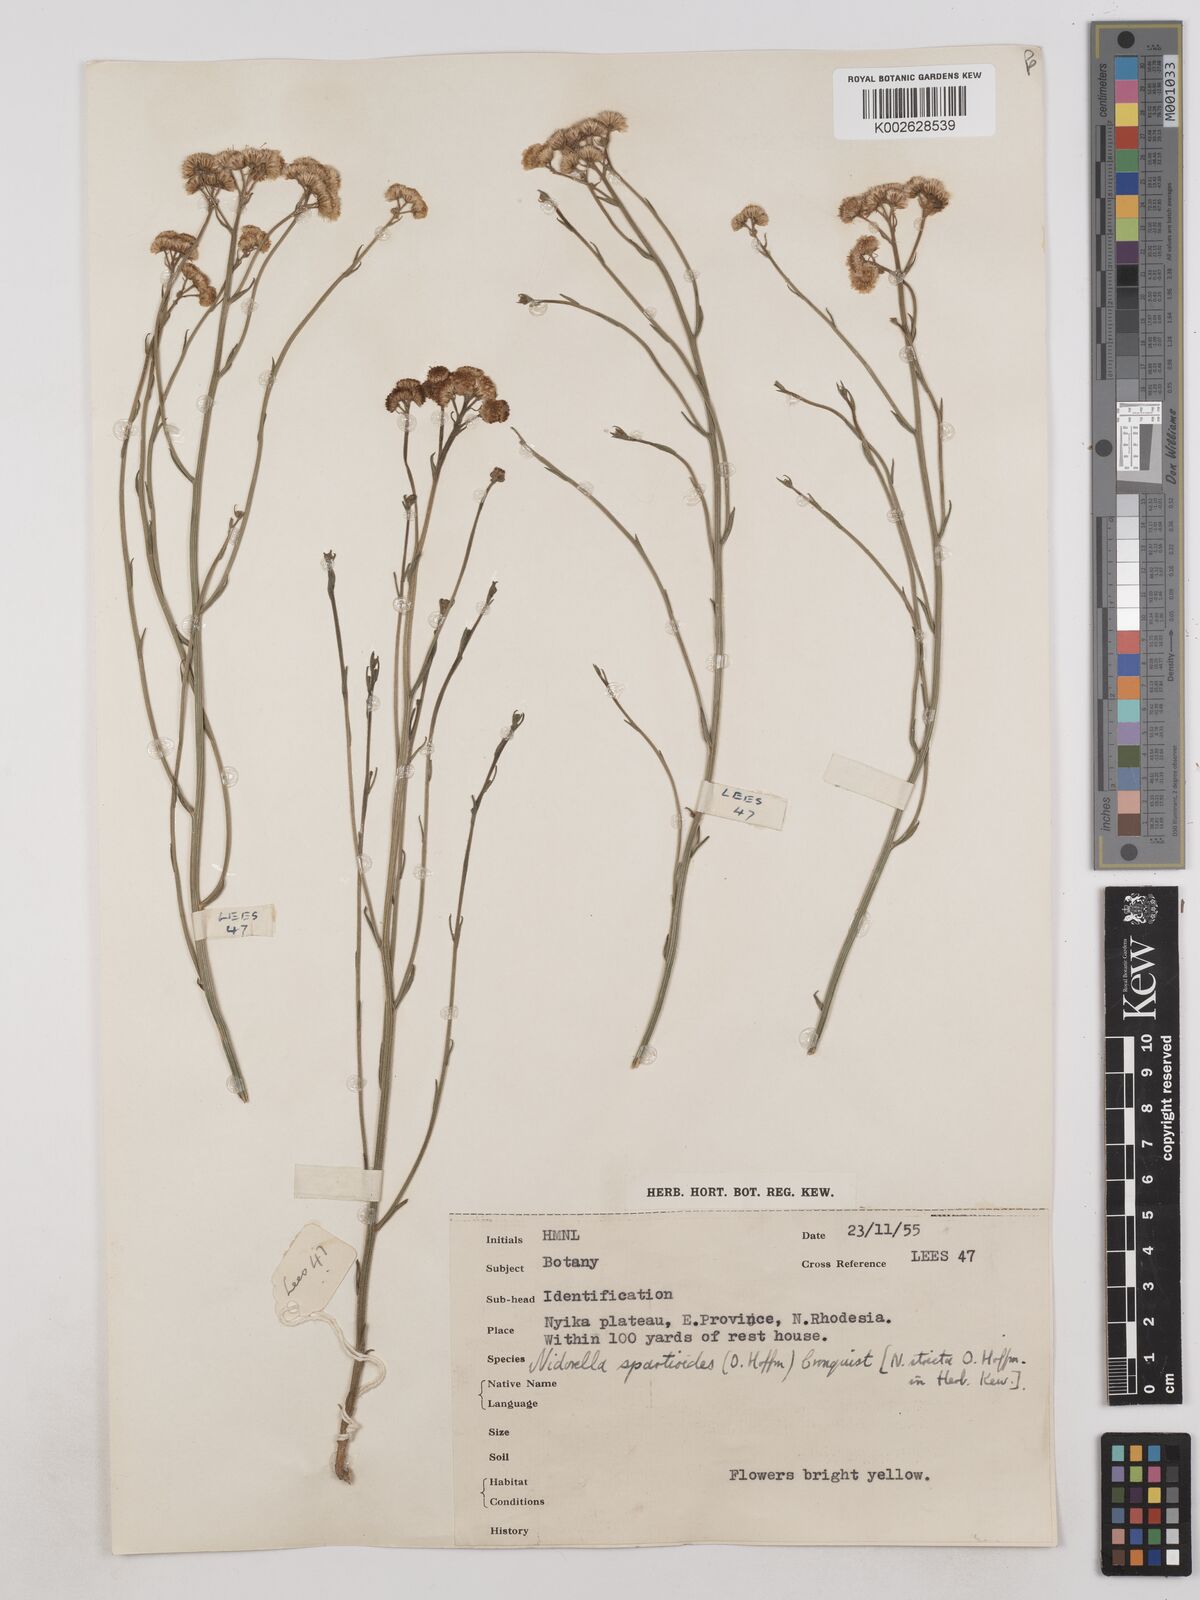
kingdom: Plantae
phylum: Tracheophyta
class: Magnoliopsida
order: Asterales
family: Asteraceae
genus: Nidorella
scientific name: Nidorella spartioides
